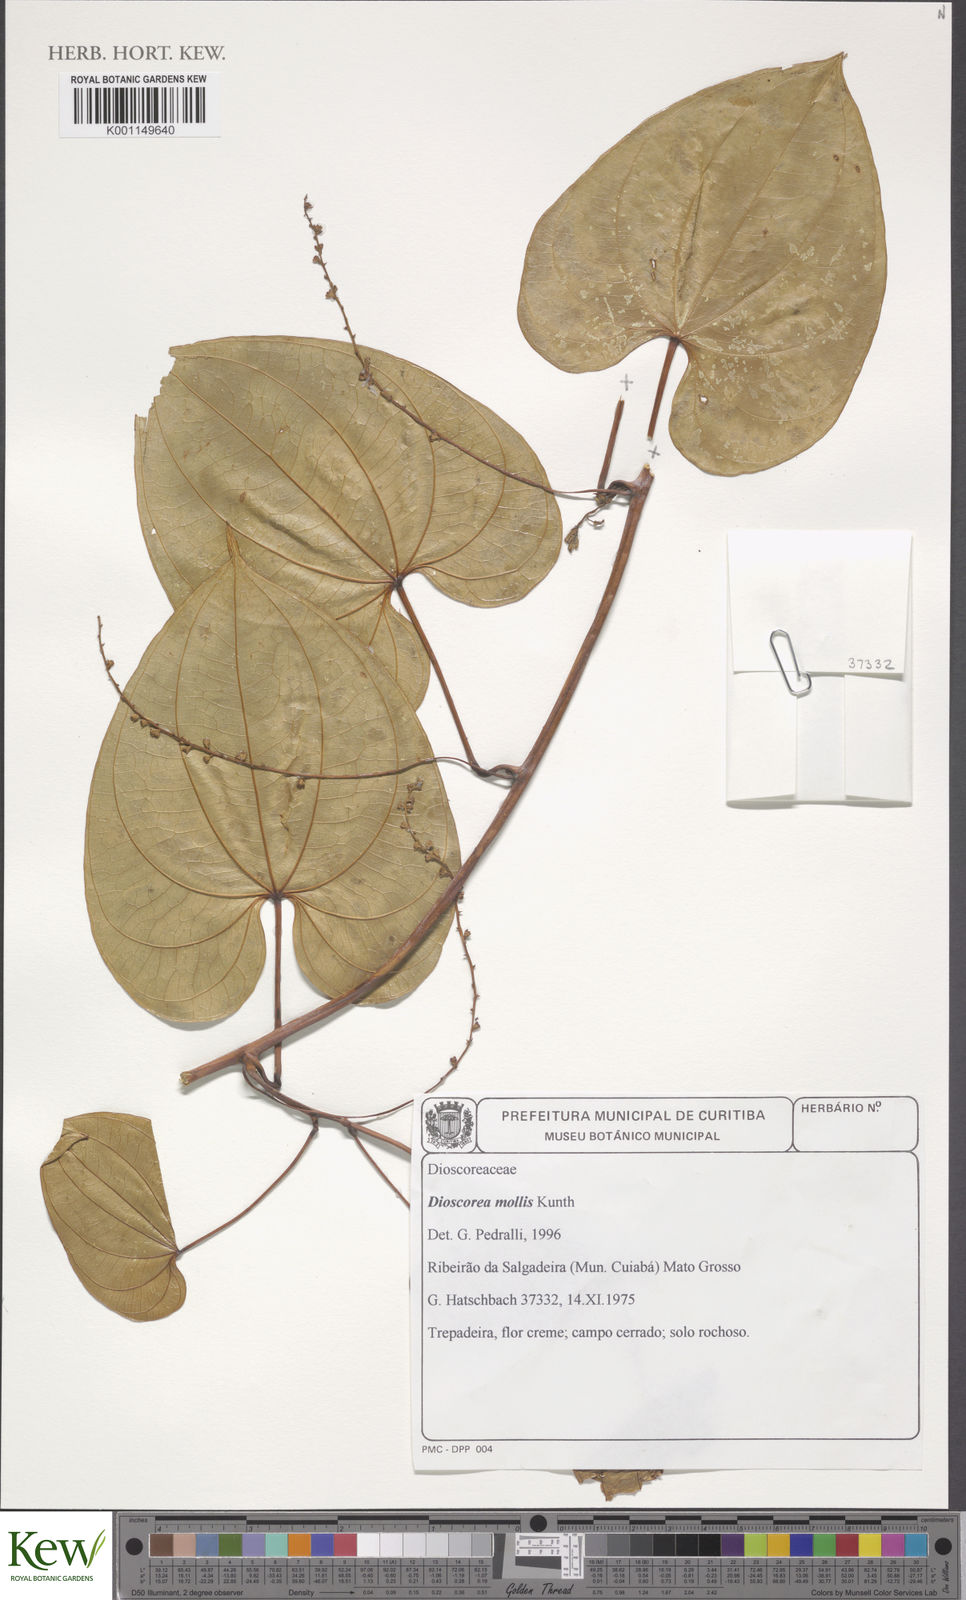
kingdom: Plantae
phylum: Tracheophyta
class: Liliopsida
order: Dioscoreales
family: Dioscoreaceae
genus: Dioscorea
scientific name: Dioscorea chondrocarpa
